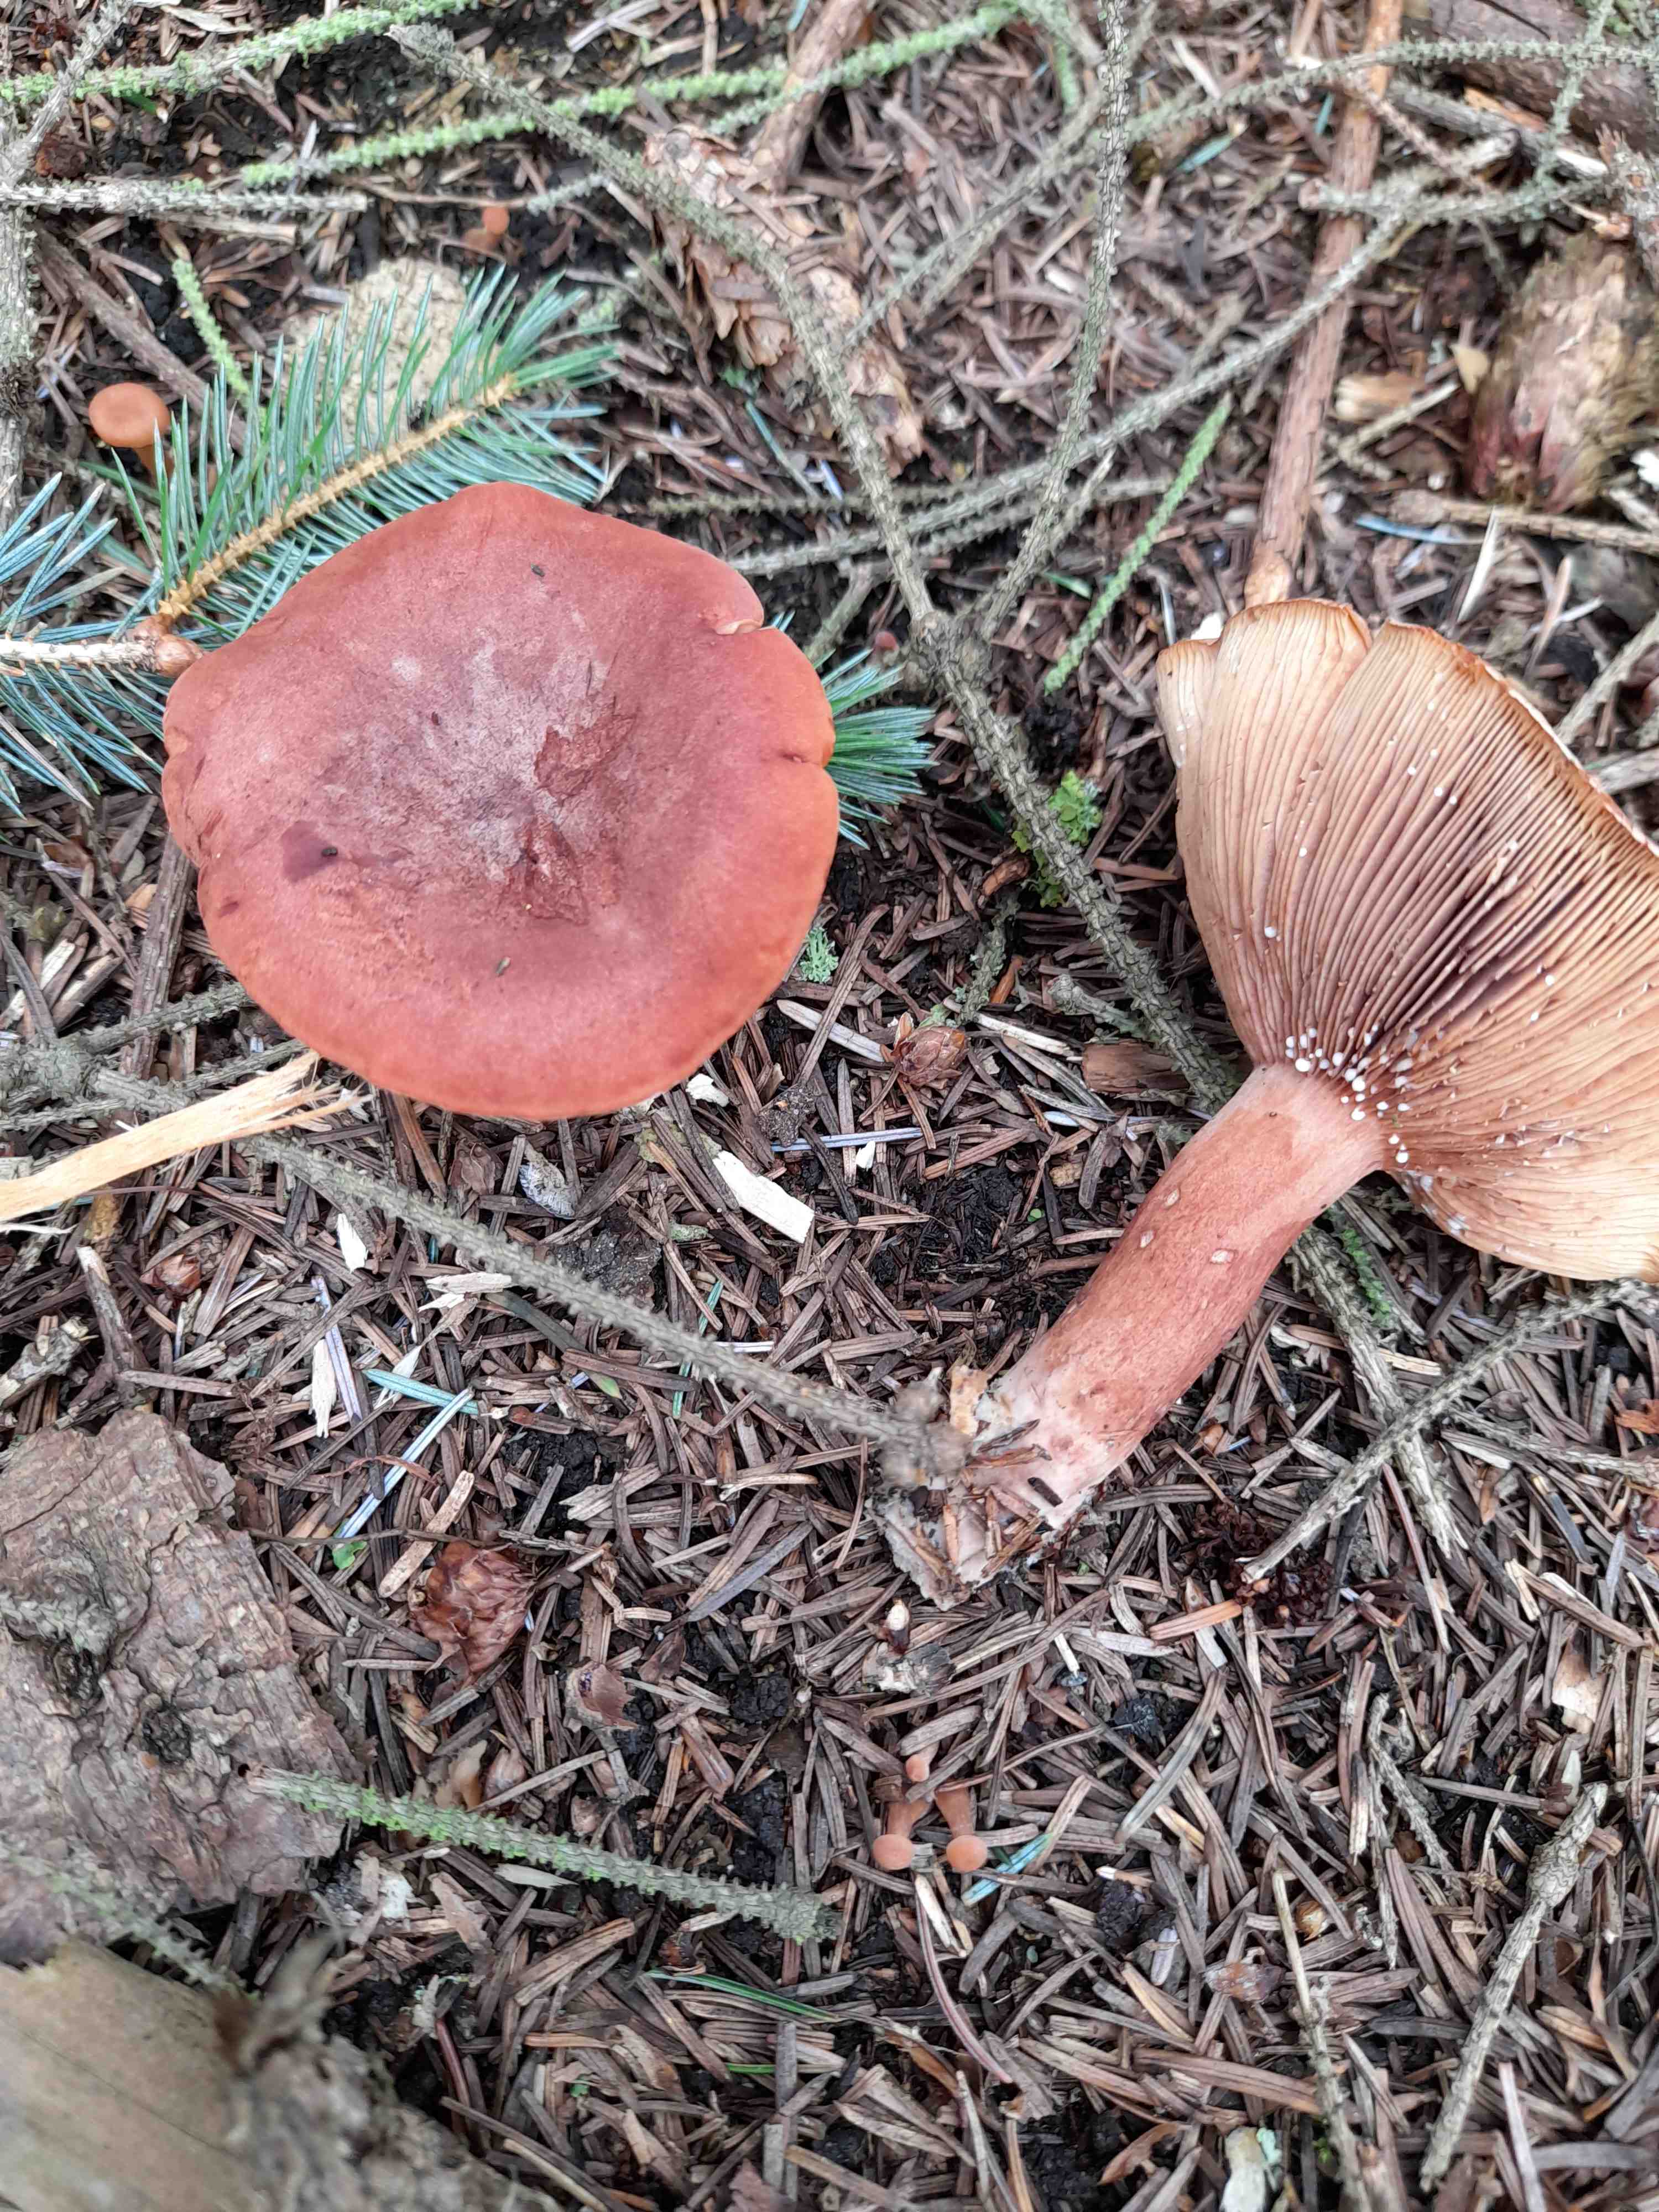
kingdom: Fungi
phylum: Basidiomycota
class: Agaricomycetes
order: Russulales
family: Russulaceae
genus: Lactarius
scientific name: Lactarius rufus
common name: rødbrun mælkehat
